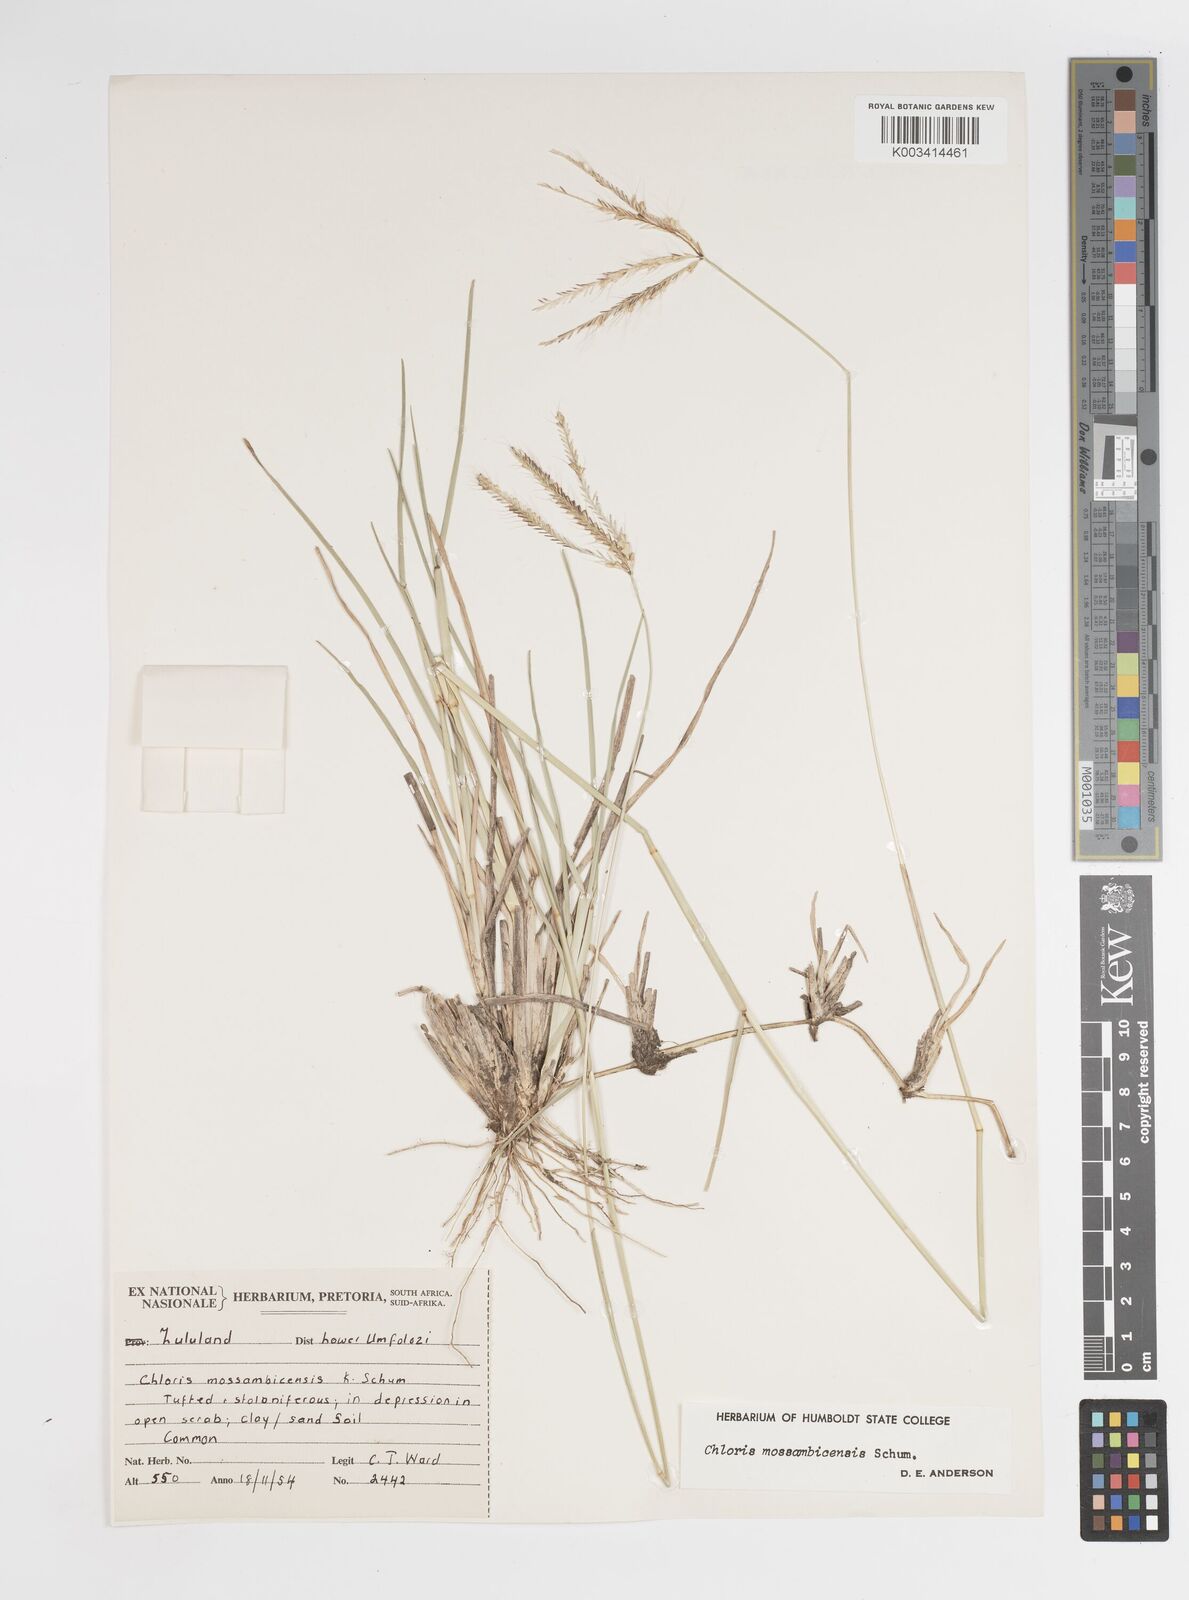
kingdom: Plantae
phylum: Tracheophyta
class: Liliopsida
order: Poales
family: Poaceae
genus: Chloris
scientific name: Chloris mossambicensis
